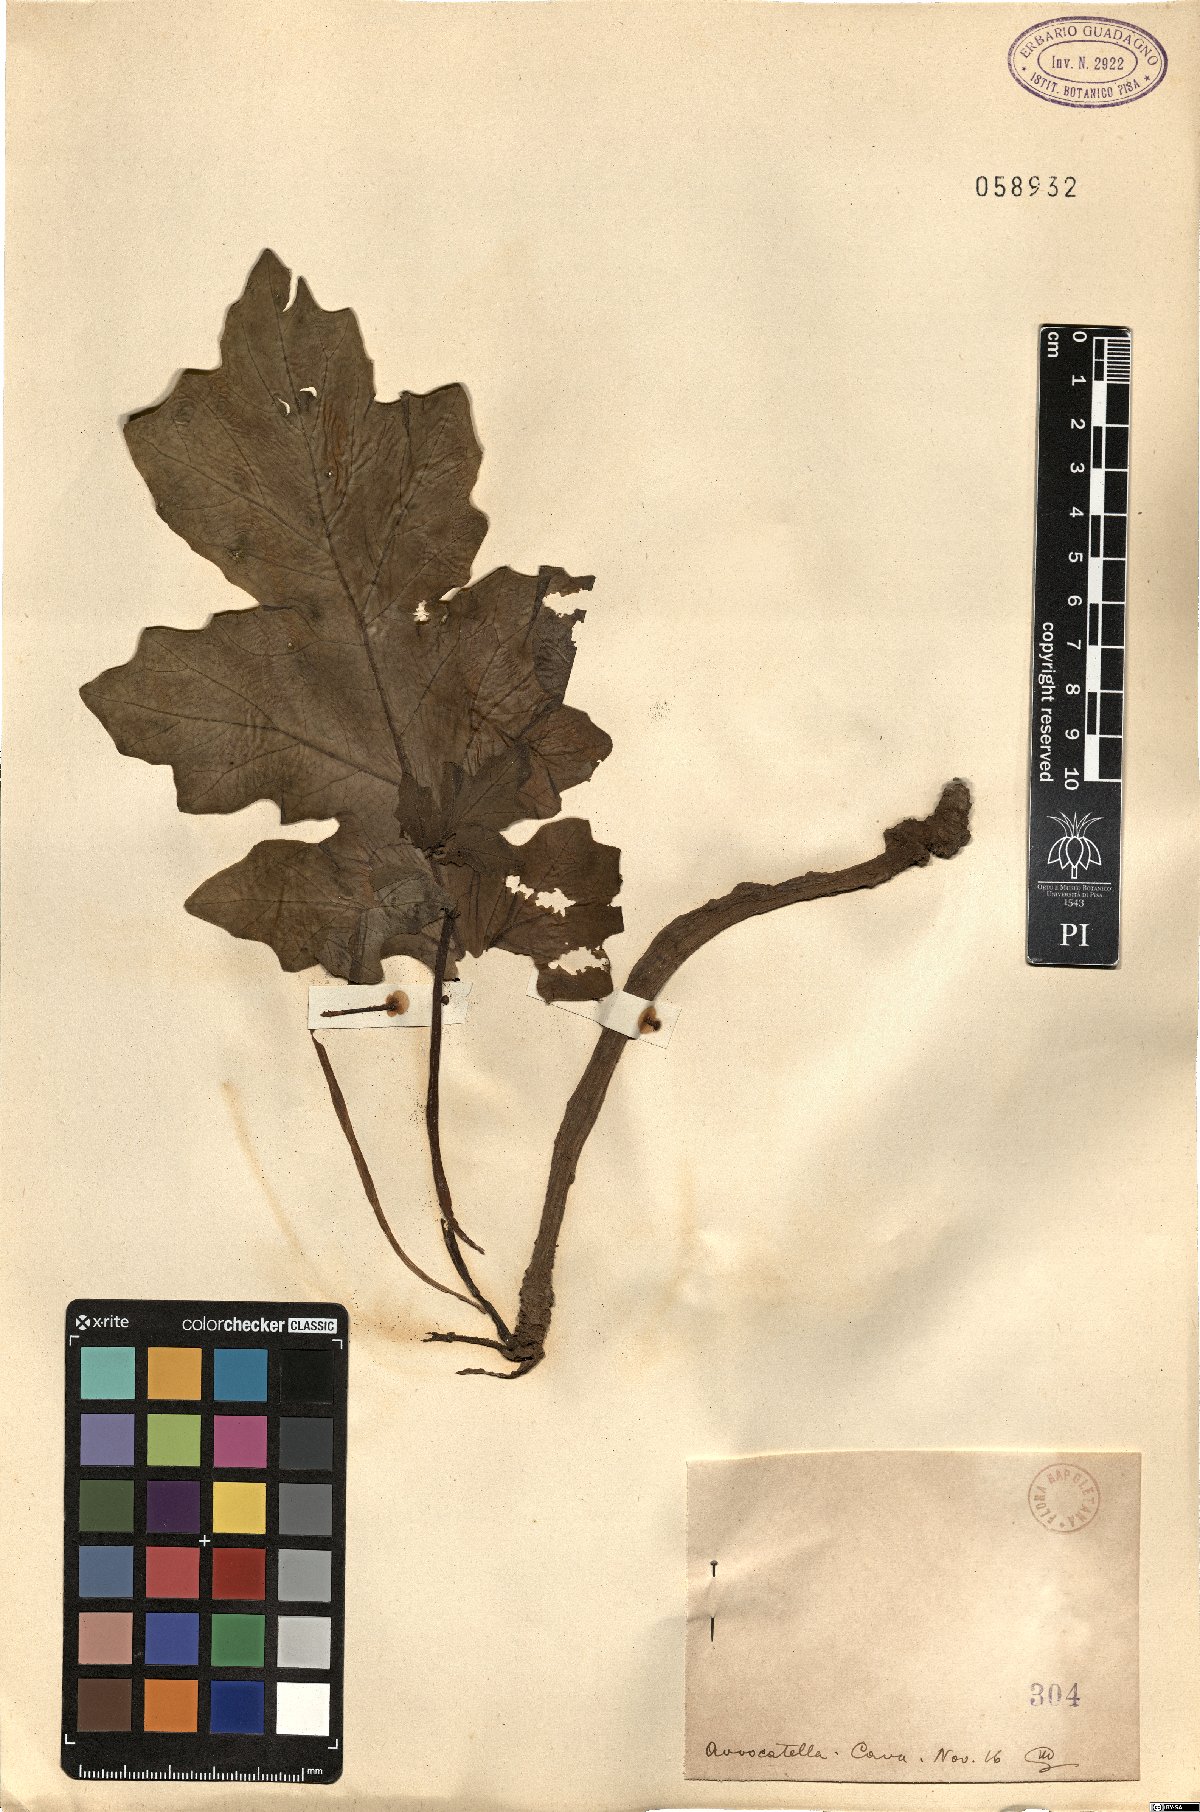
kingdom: Plantae
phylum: Tracheophyta
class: Magnoliopsida
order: Lamiales
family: Acanthaceae
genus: Acanthus
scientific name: Acanthus
